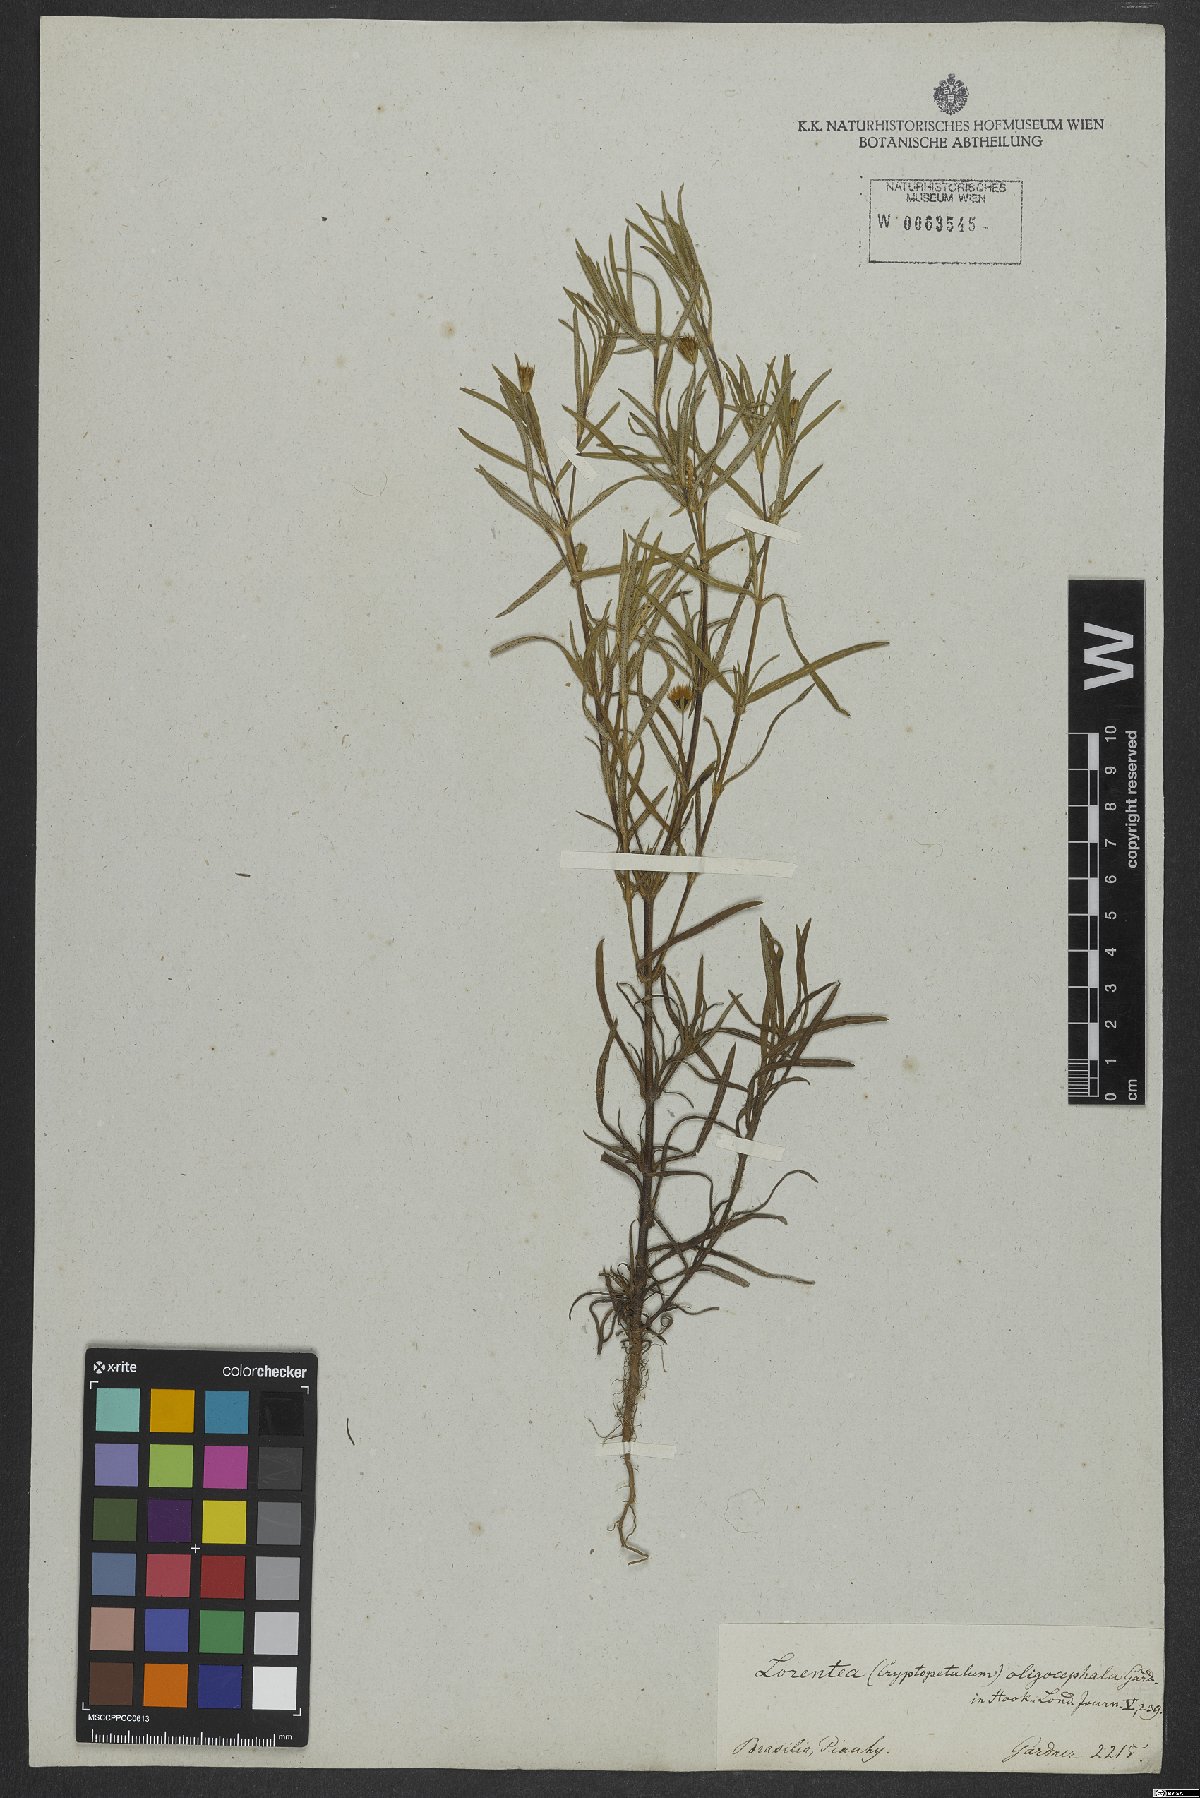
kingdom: Plantae
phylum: Tracheophyta
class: Magnoliopsida
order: Asterales
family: Asteraceae
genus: Pectis
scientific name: Pectis oligocephala
